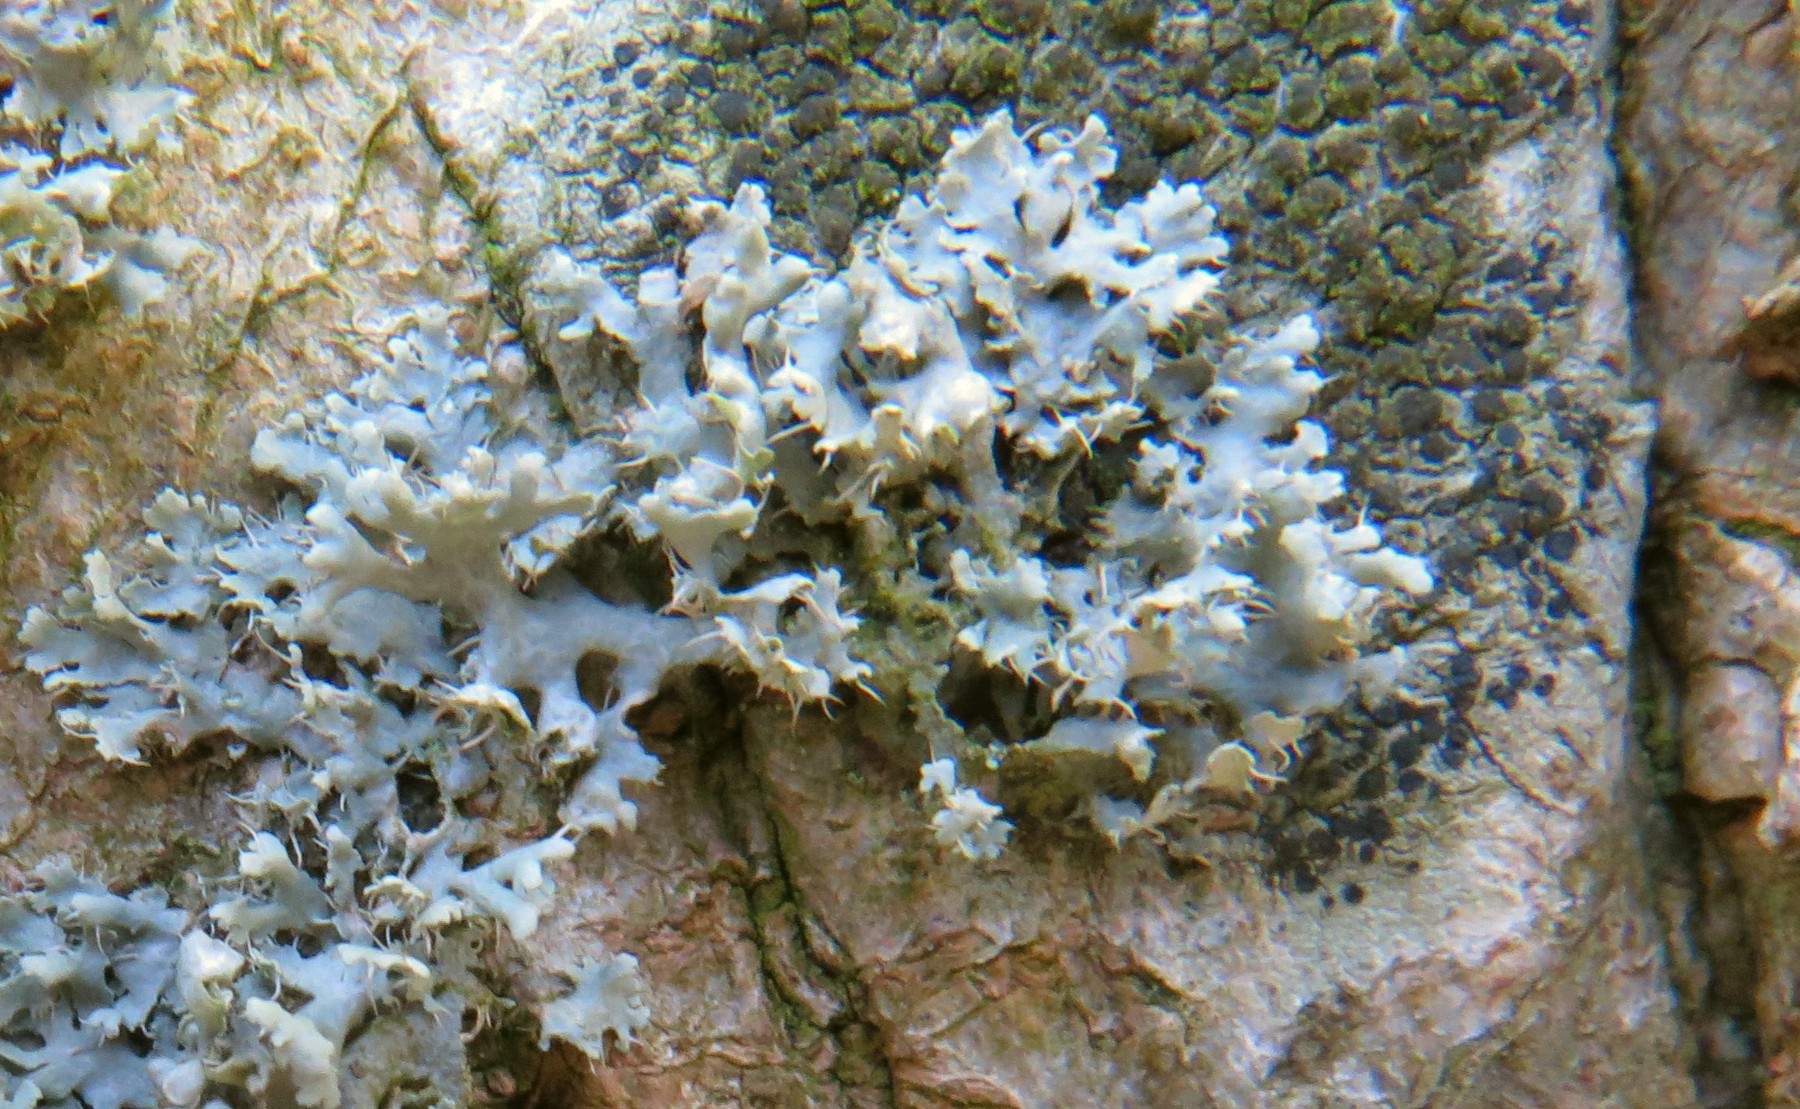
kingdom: Fungi
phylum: Ascomycota
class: Lecanoromycetes
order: Caliciales
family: Physciaceae
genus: Physcia
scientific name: Physcia adscendens
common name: hætte-rosetlav
